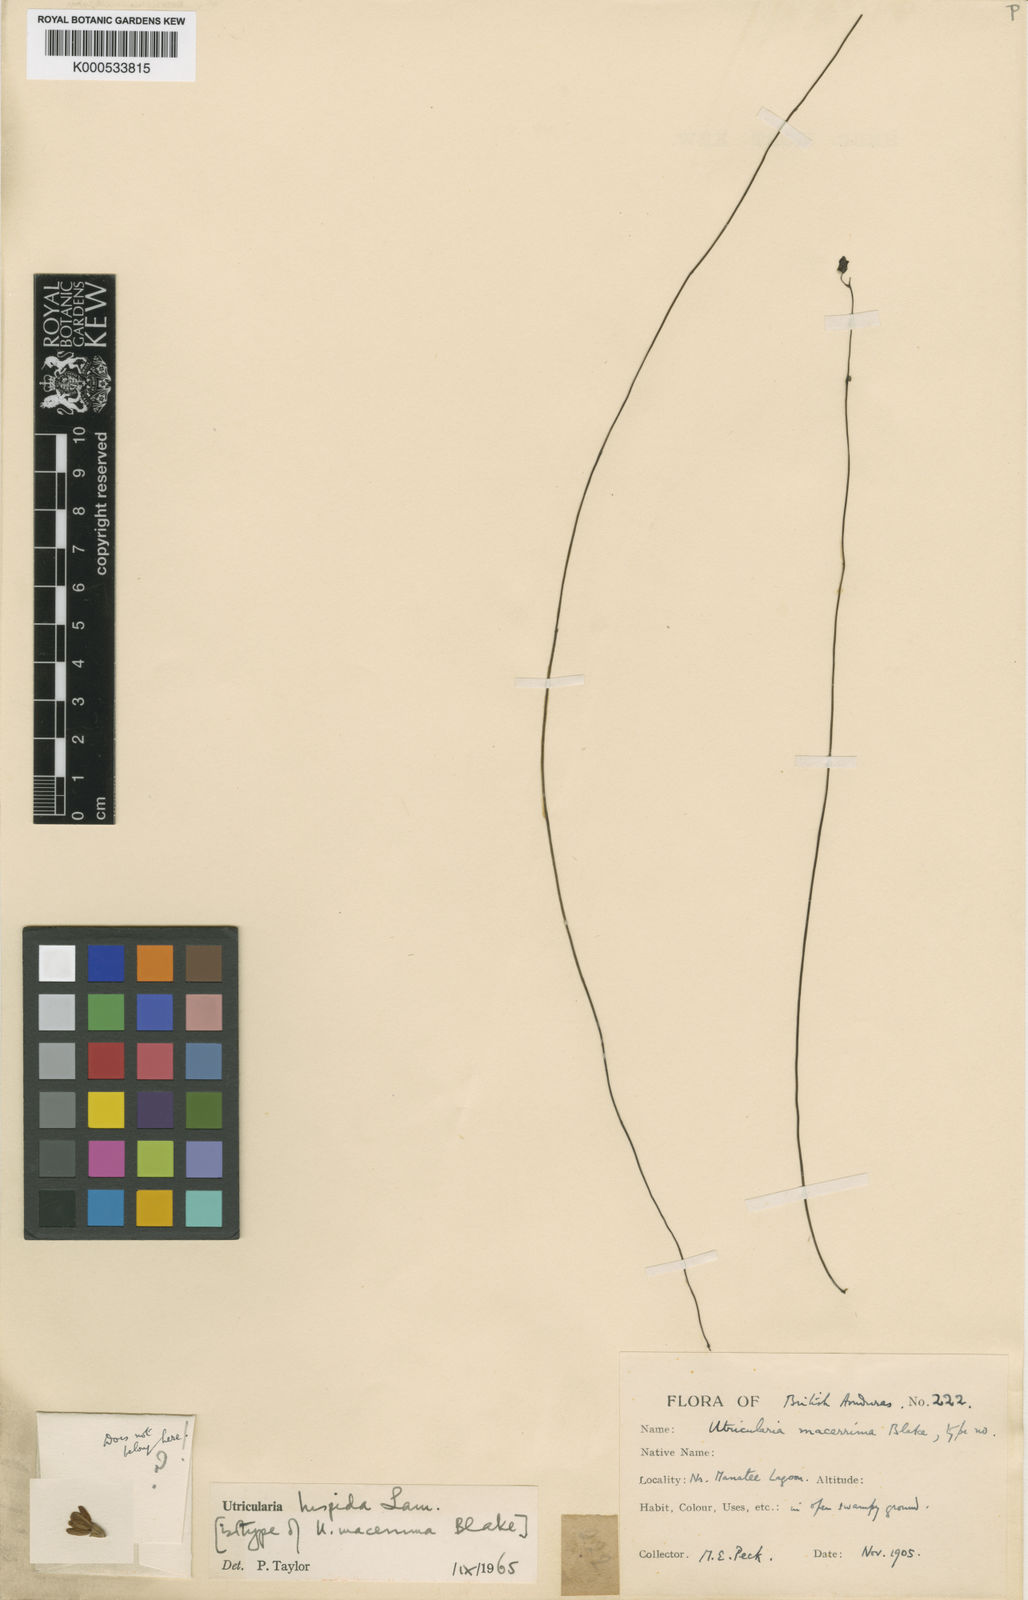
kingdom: Plantae
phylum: Tracheophyta
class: Magnoliopsida
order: Lamiales
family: Lentibulariaceae
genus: Utricularia
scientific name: Utricularia hispida
